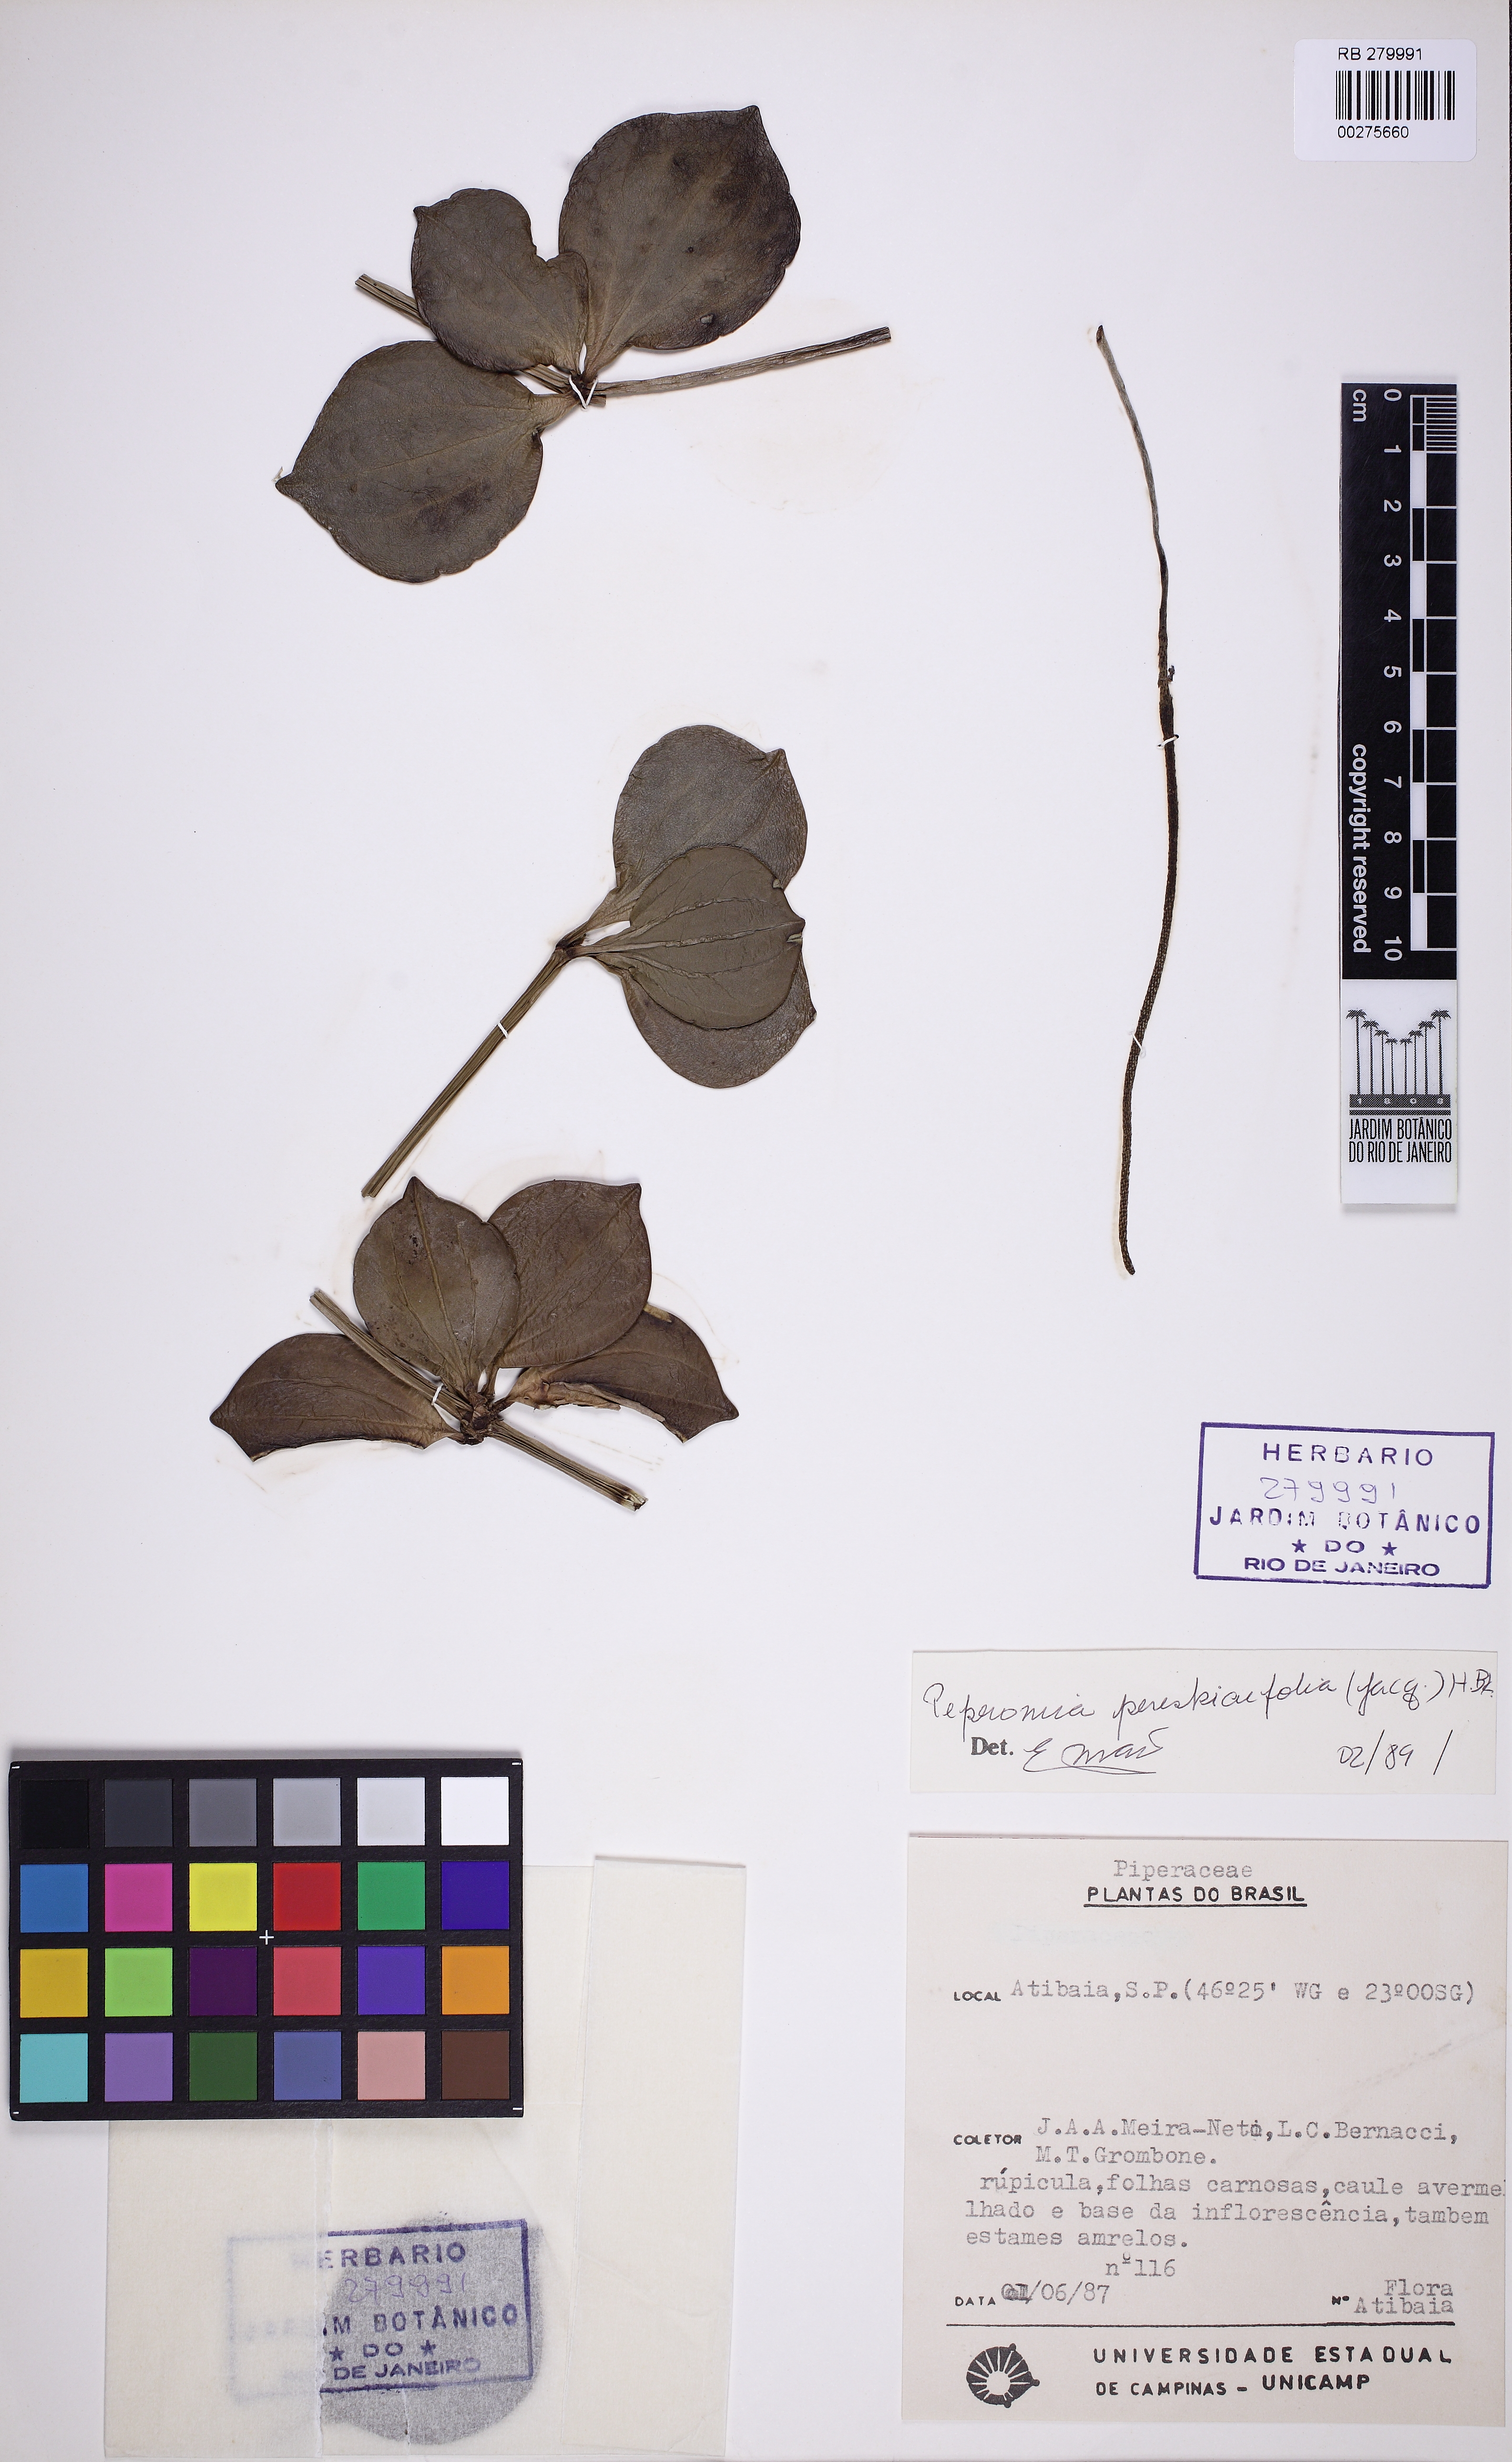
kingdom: Plantae
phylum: Tracheophyta
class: Magnoliopsida
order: Piperales
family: Piperaceae
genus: Peperomia
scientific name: Peperomia pereskiifolia
